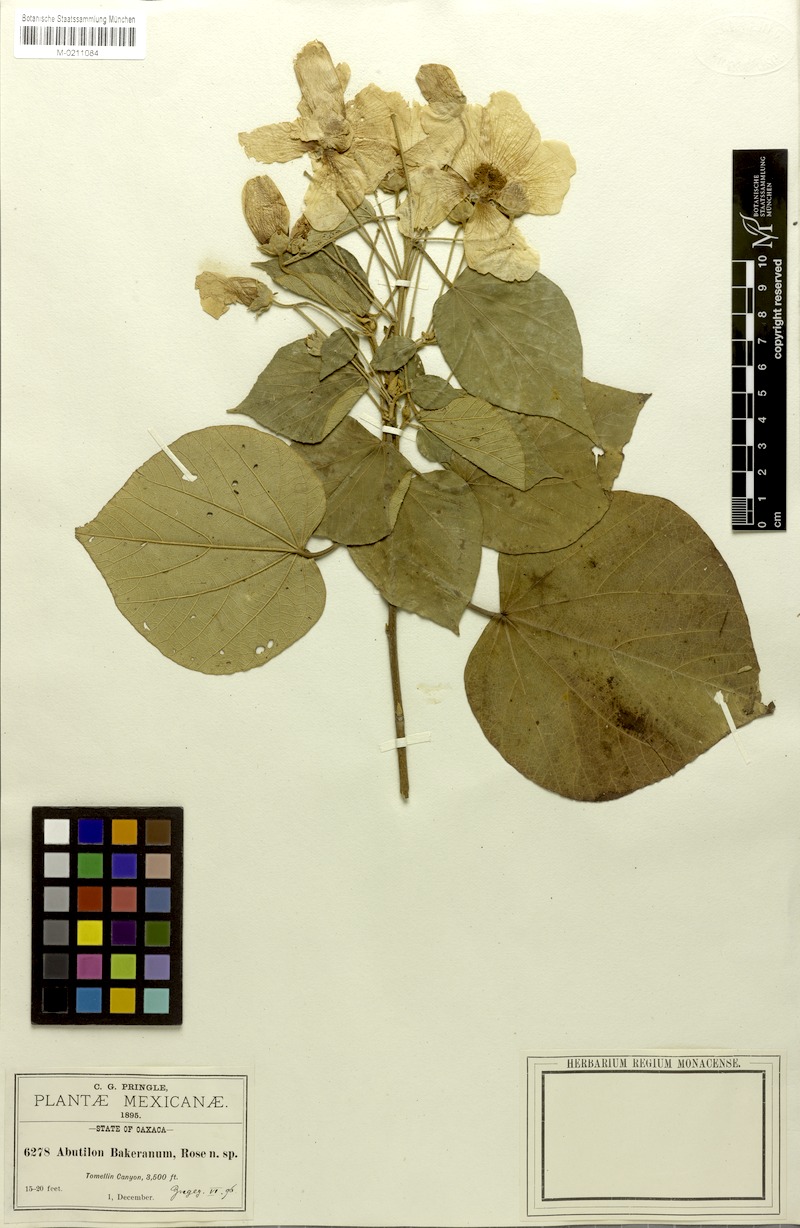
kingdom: Plantae
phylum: Tracheophyta
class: Magnoliopsida
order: Malvales
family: Malvaceae
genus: Bakeridesia
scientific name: Bakeridesia bakeriana
